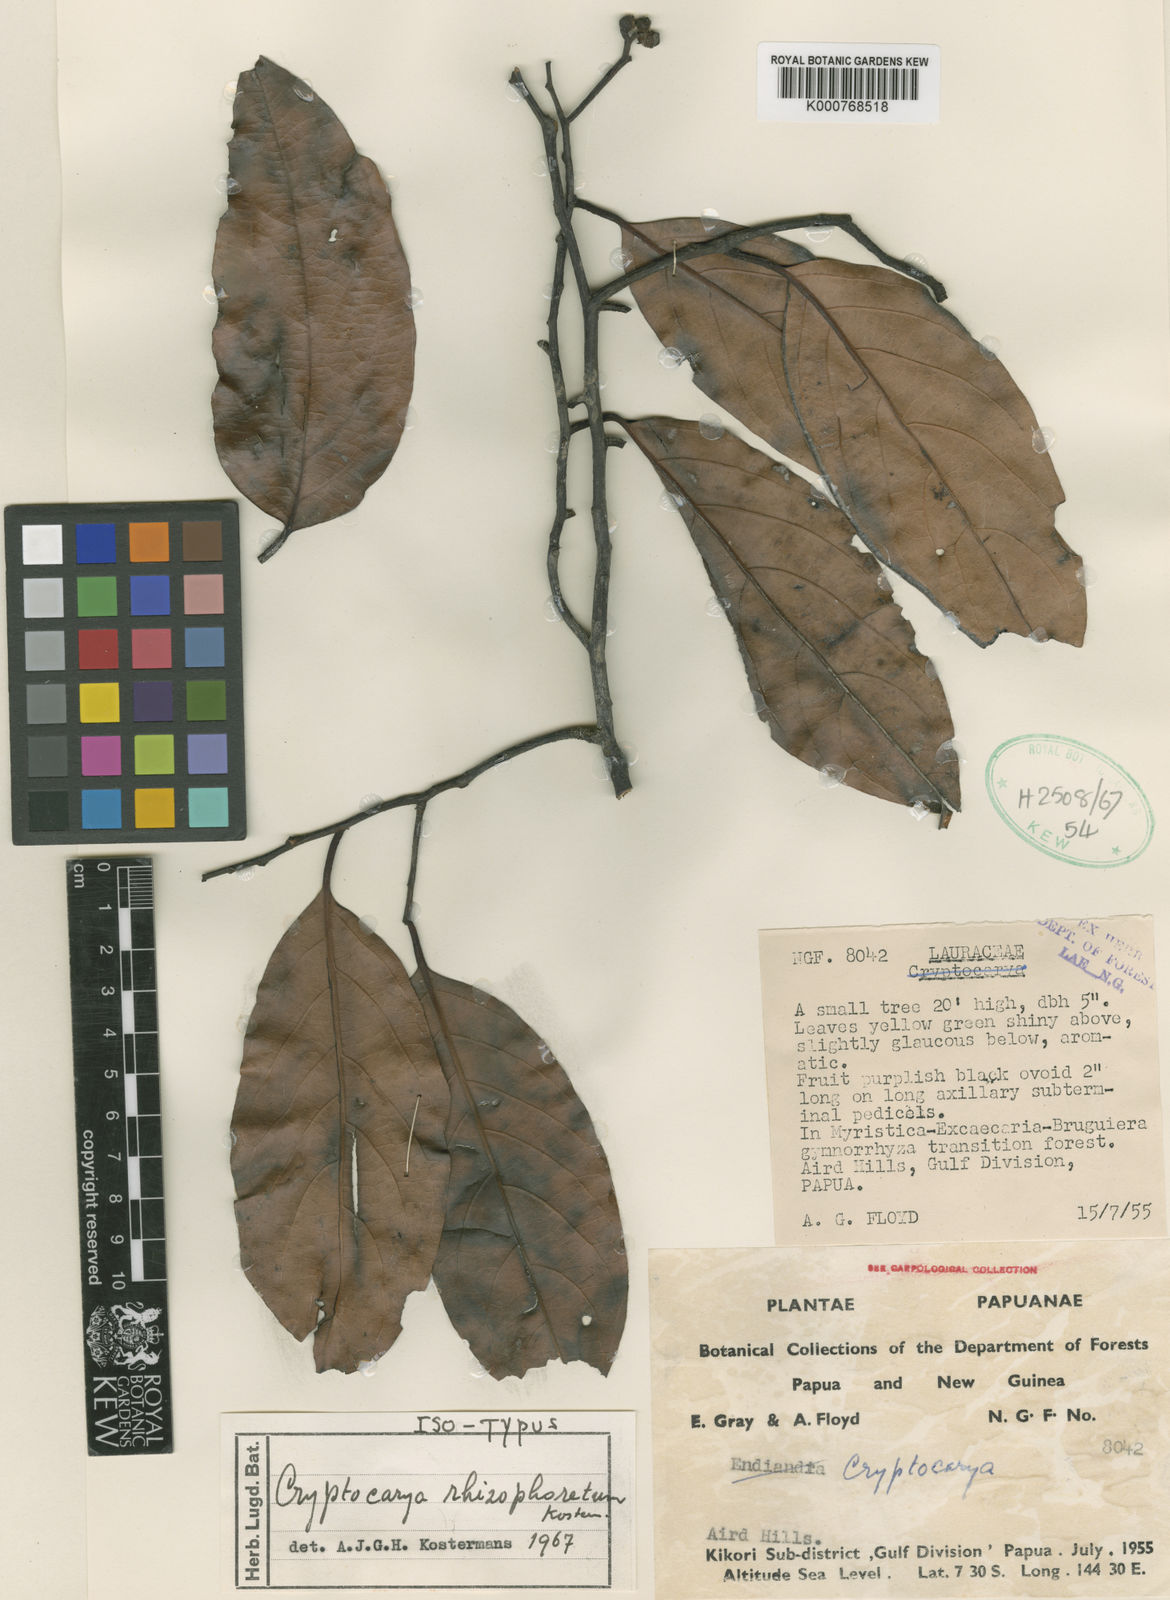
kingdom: Plantae
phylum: Tracheophyta
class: Magnoliopsida
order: Laurales
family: Lauraceae
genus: Cryptocarya
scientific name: Cryptocarya rhizophoretum
